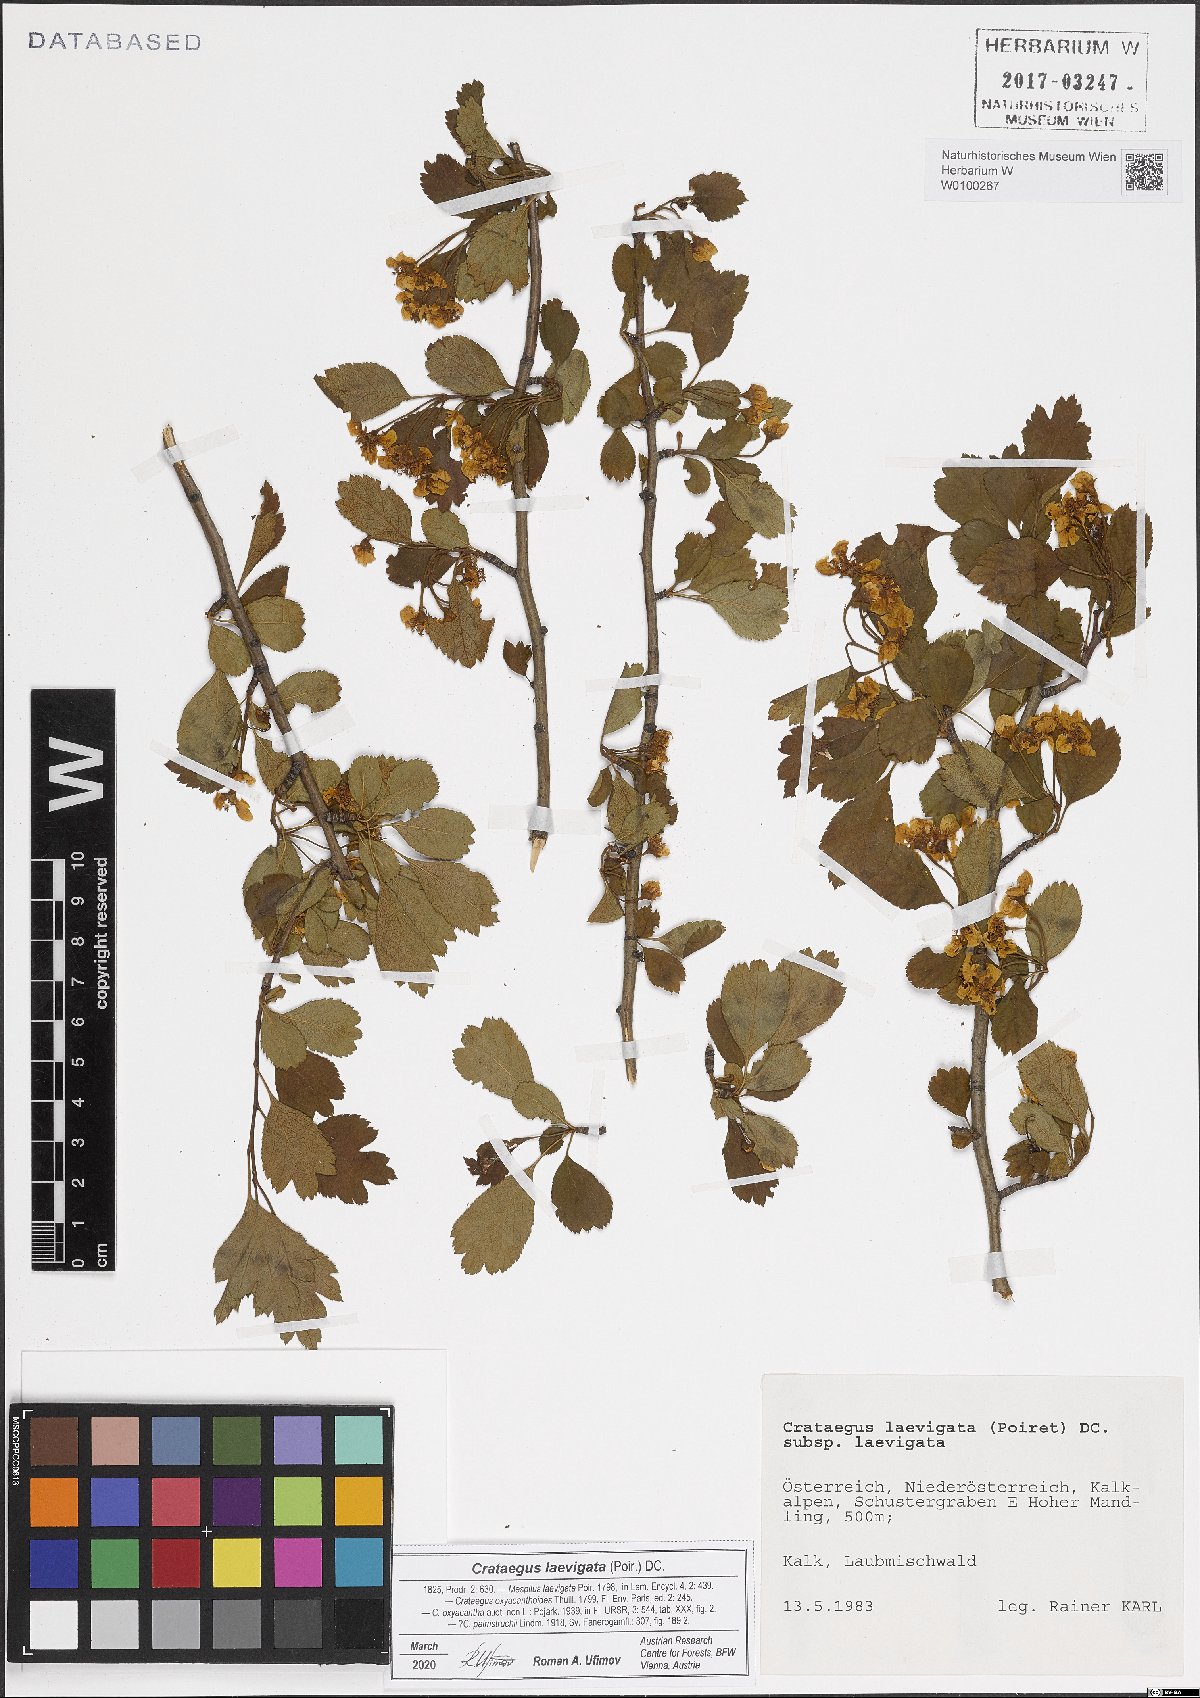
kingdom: Plantae
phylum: Tracheophyta
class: Magnoliopsida
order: Rosales
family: Rosaceae
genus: Crataegus
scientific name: Crataegus laevigata
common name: Midland hawthorn
